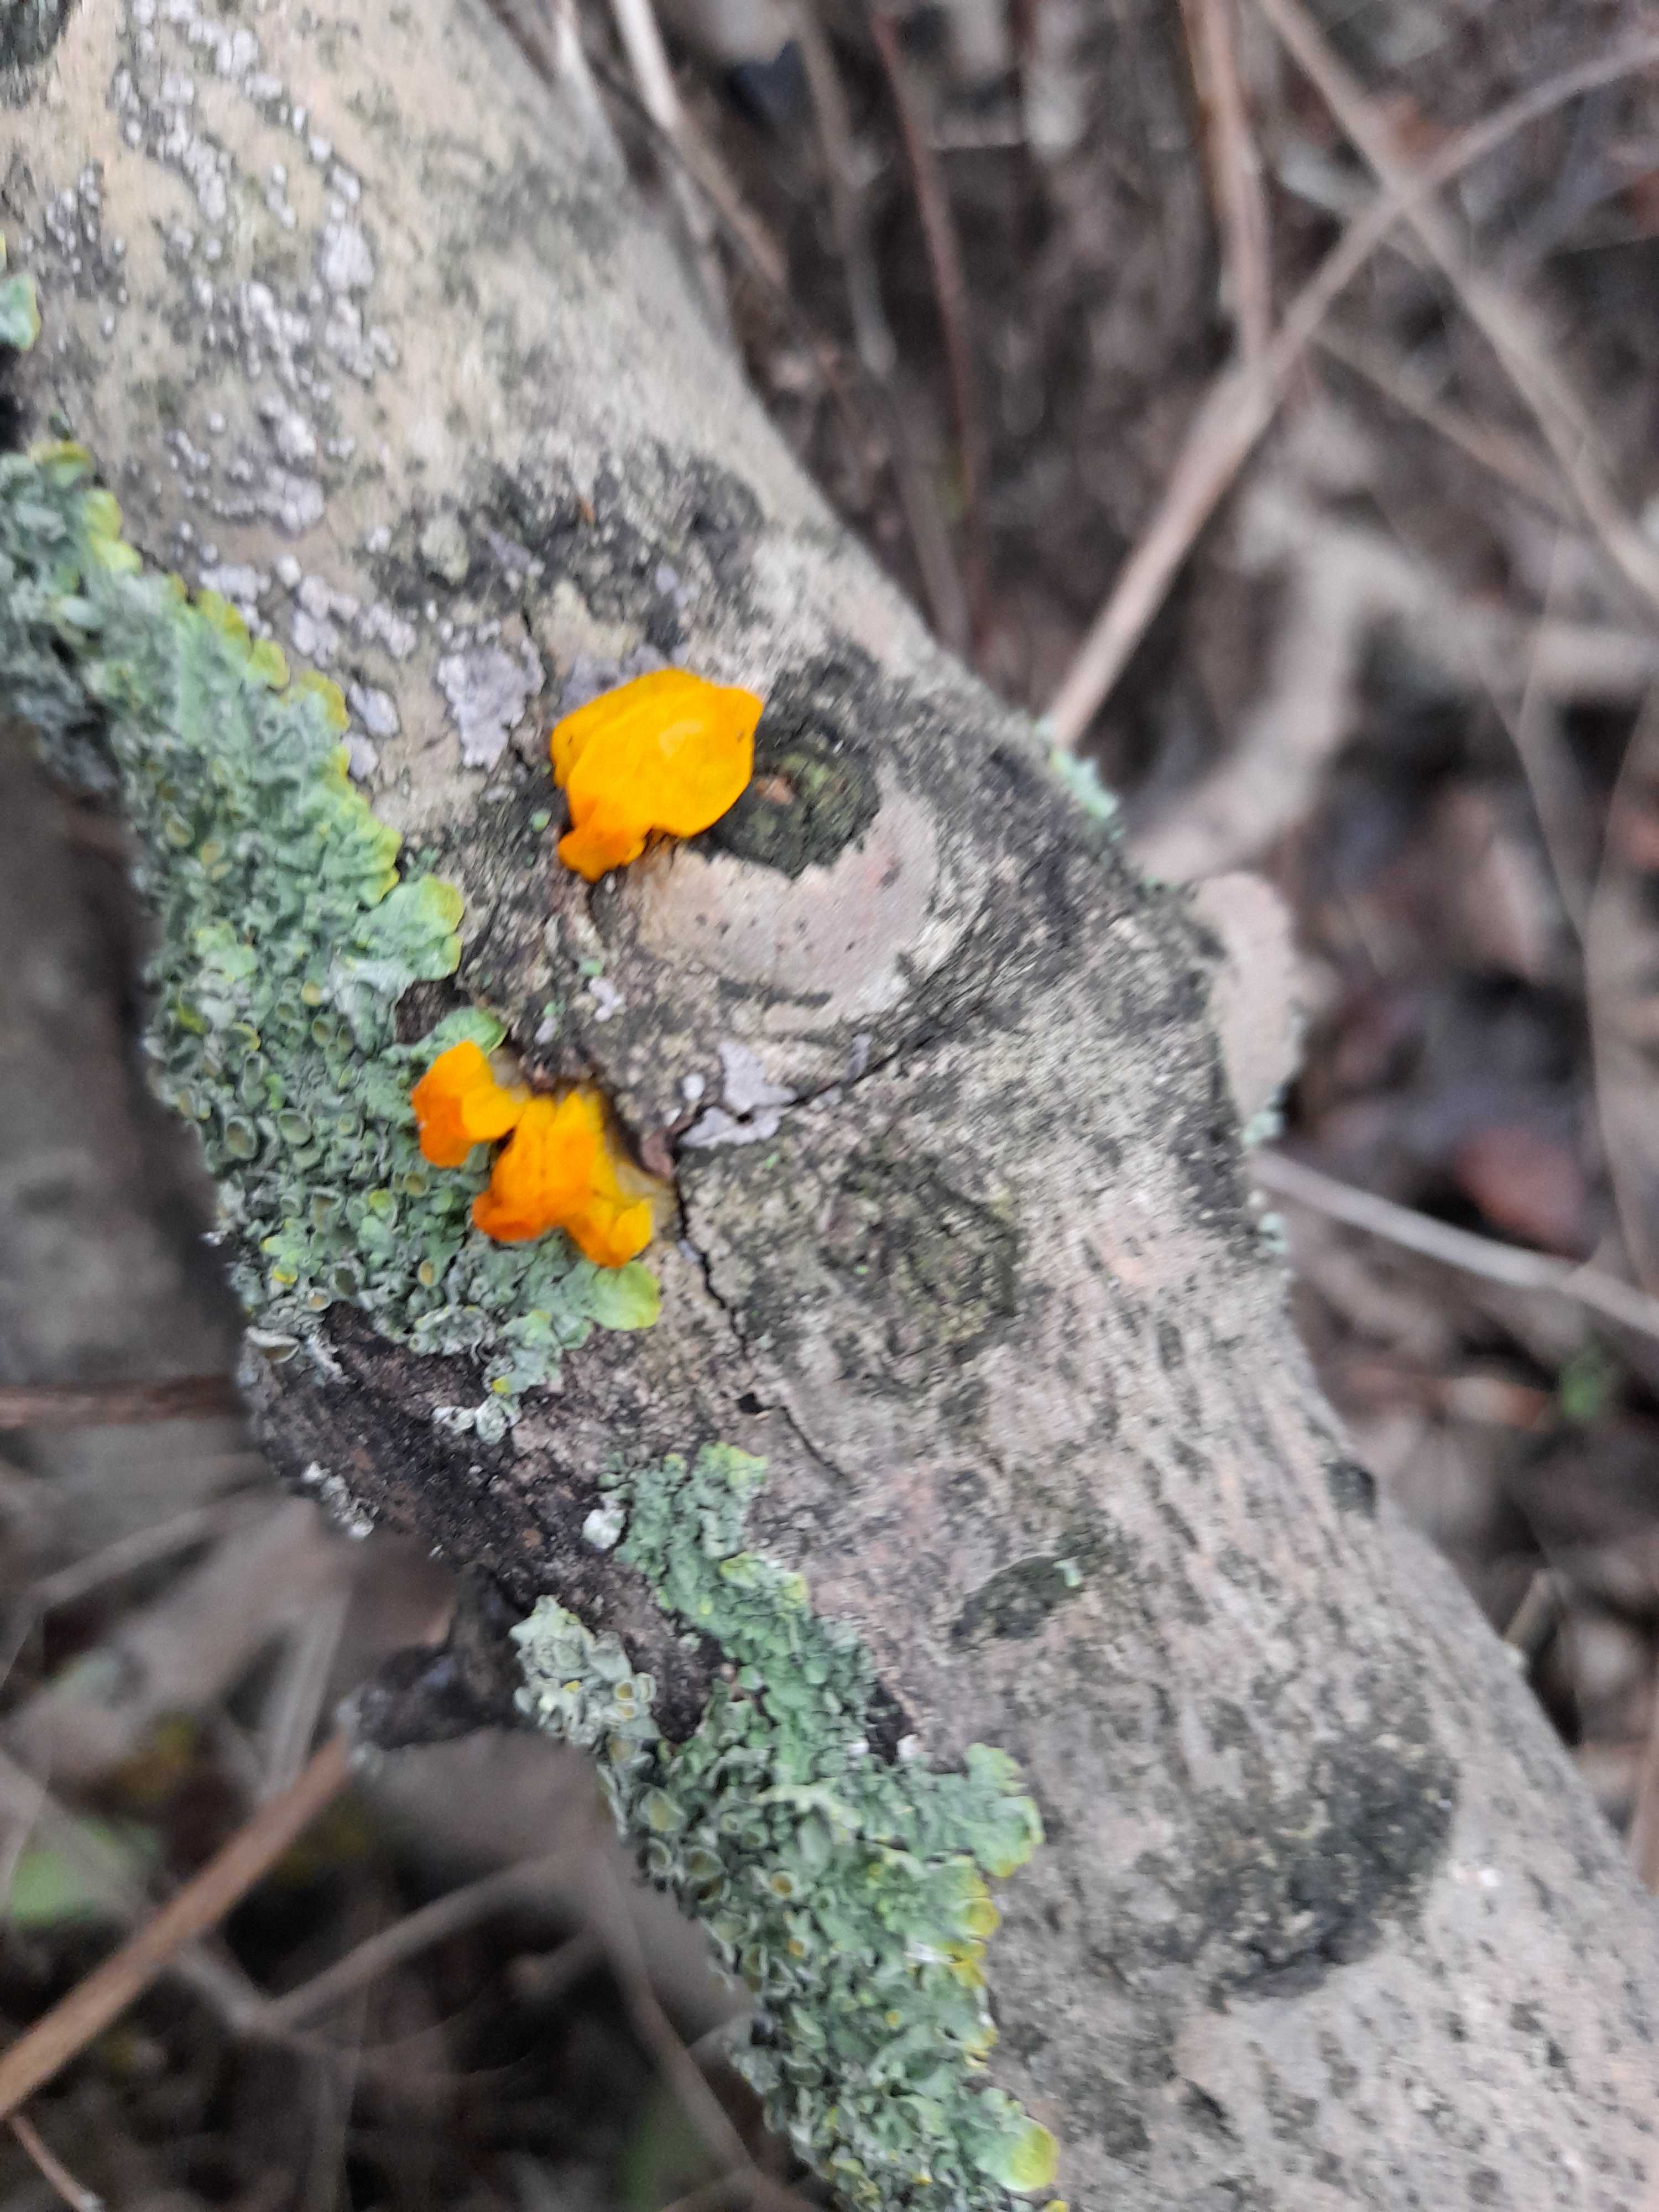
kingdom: Fungi
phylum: Basidiomycota
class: Tremellomycetes
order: Tremellales
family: Tremellaceae
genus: Tremella
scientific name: Tremella mesenterica
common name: gul bævresvamp
